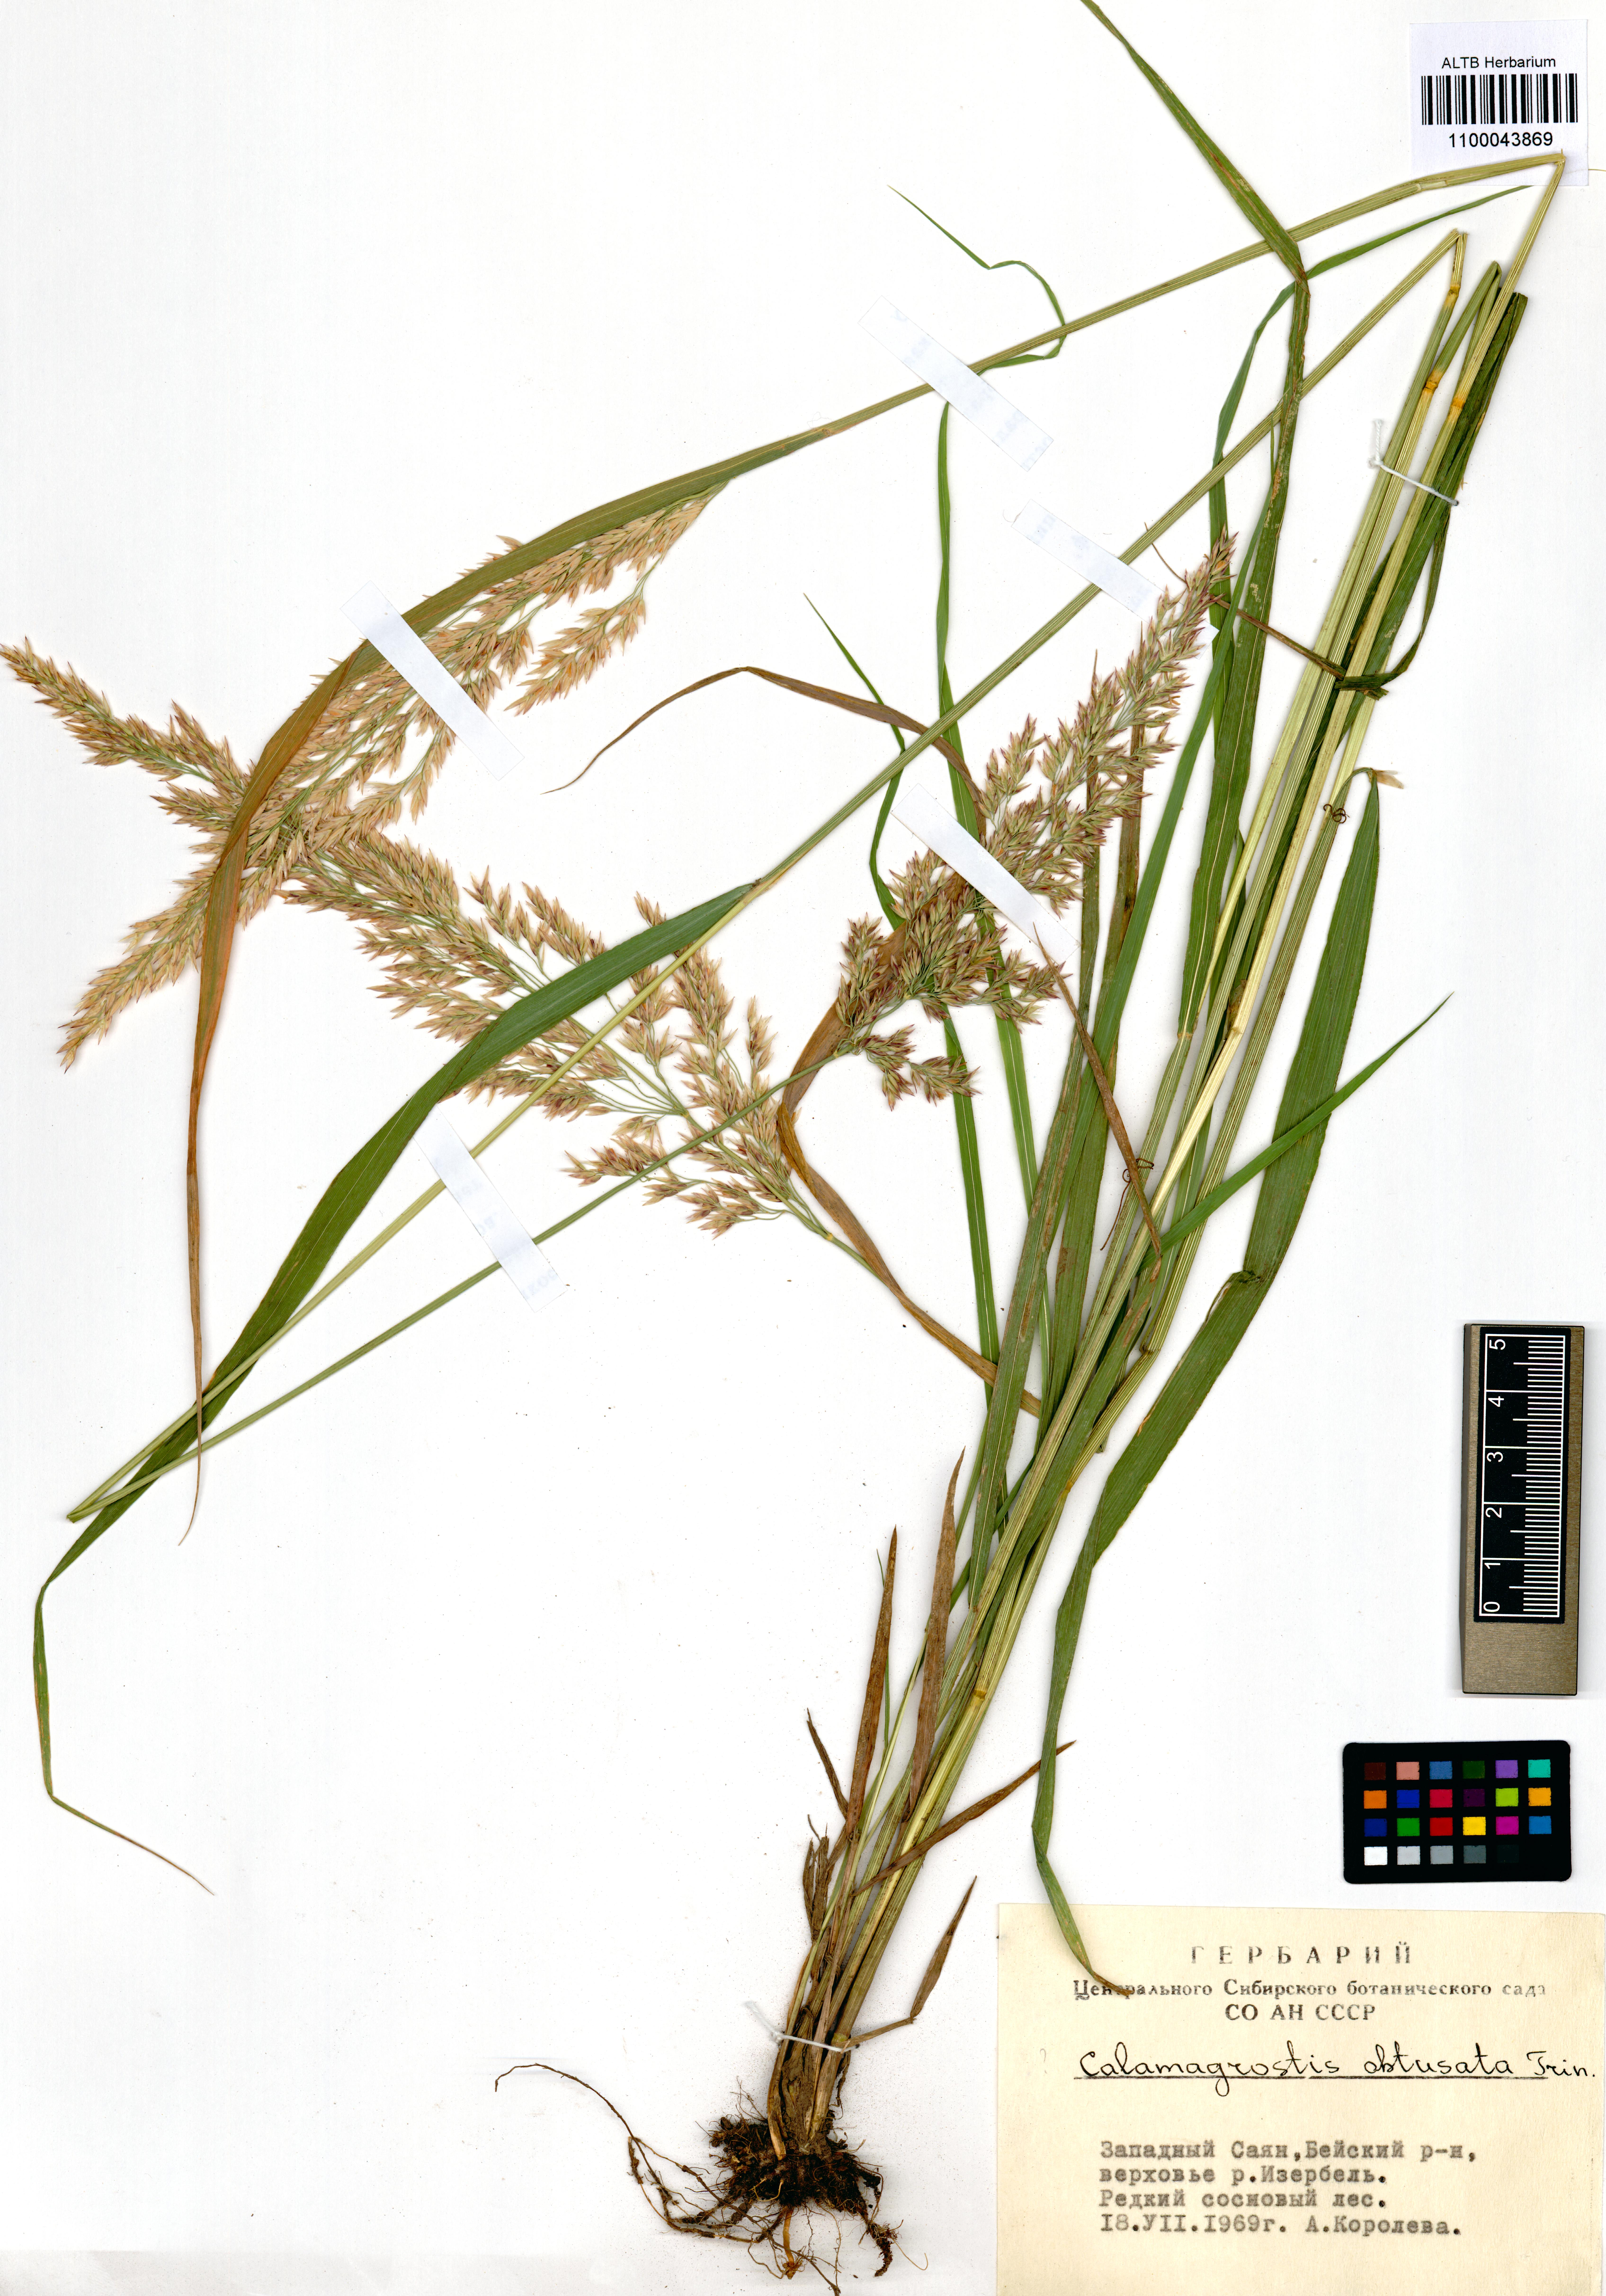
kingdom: Plantae
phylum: Tracheophyta
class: Liliopsida
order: Poales
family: Poaceae
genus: Calamagrostis
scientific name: Calamagrostis obtusata
